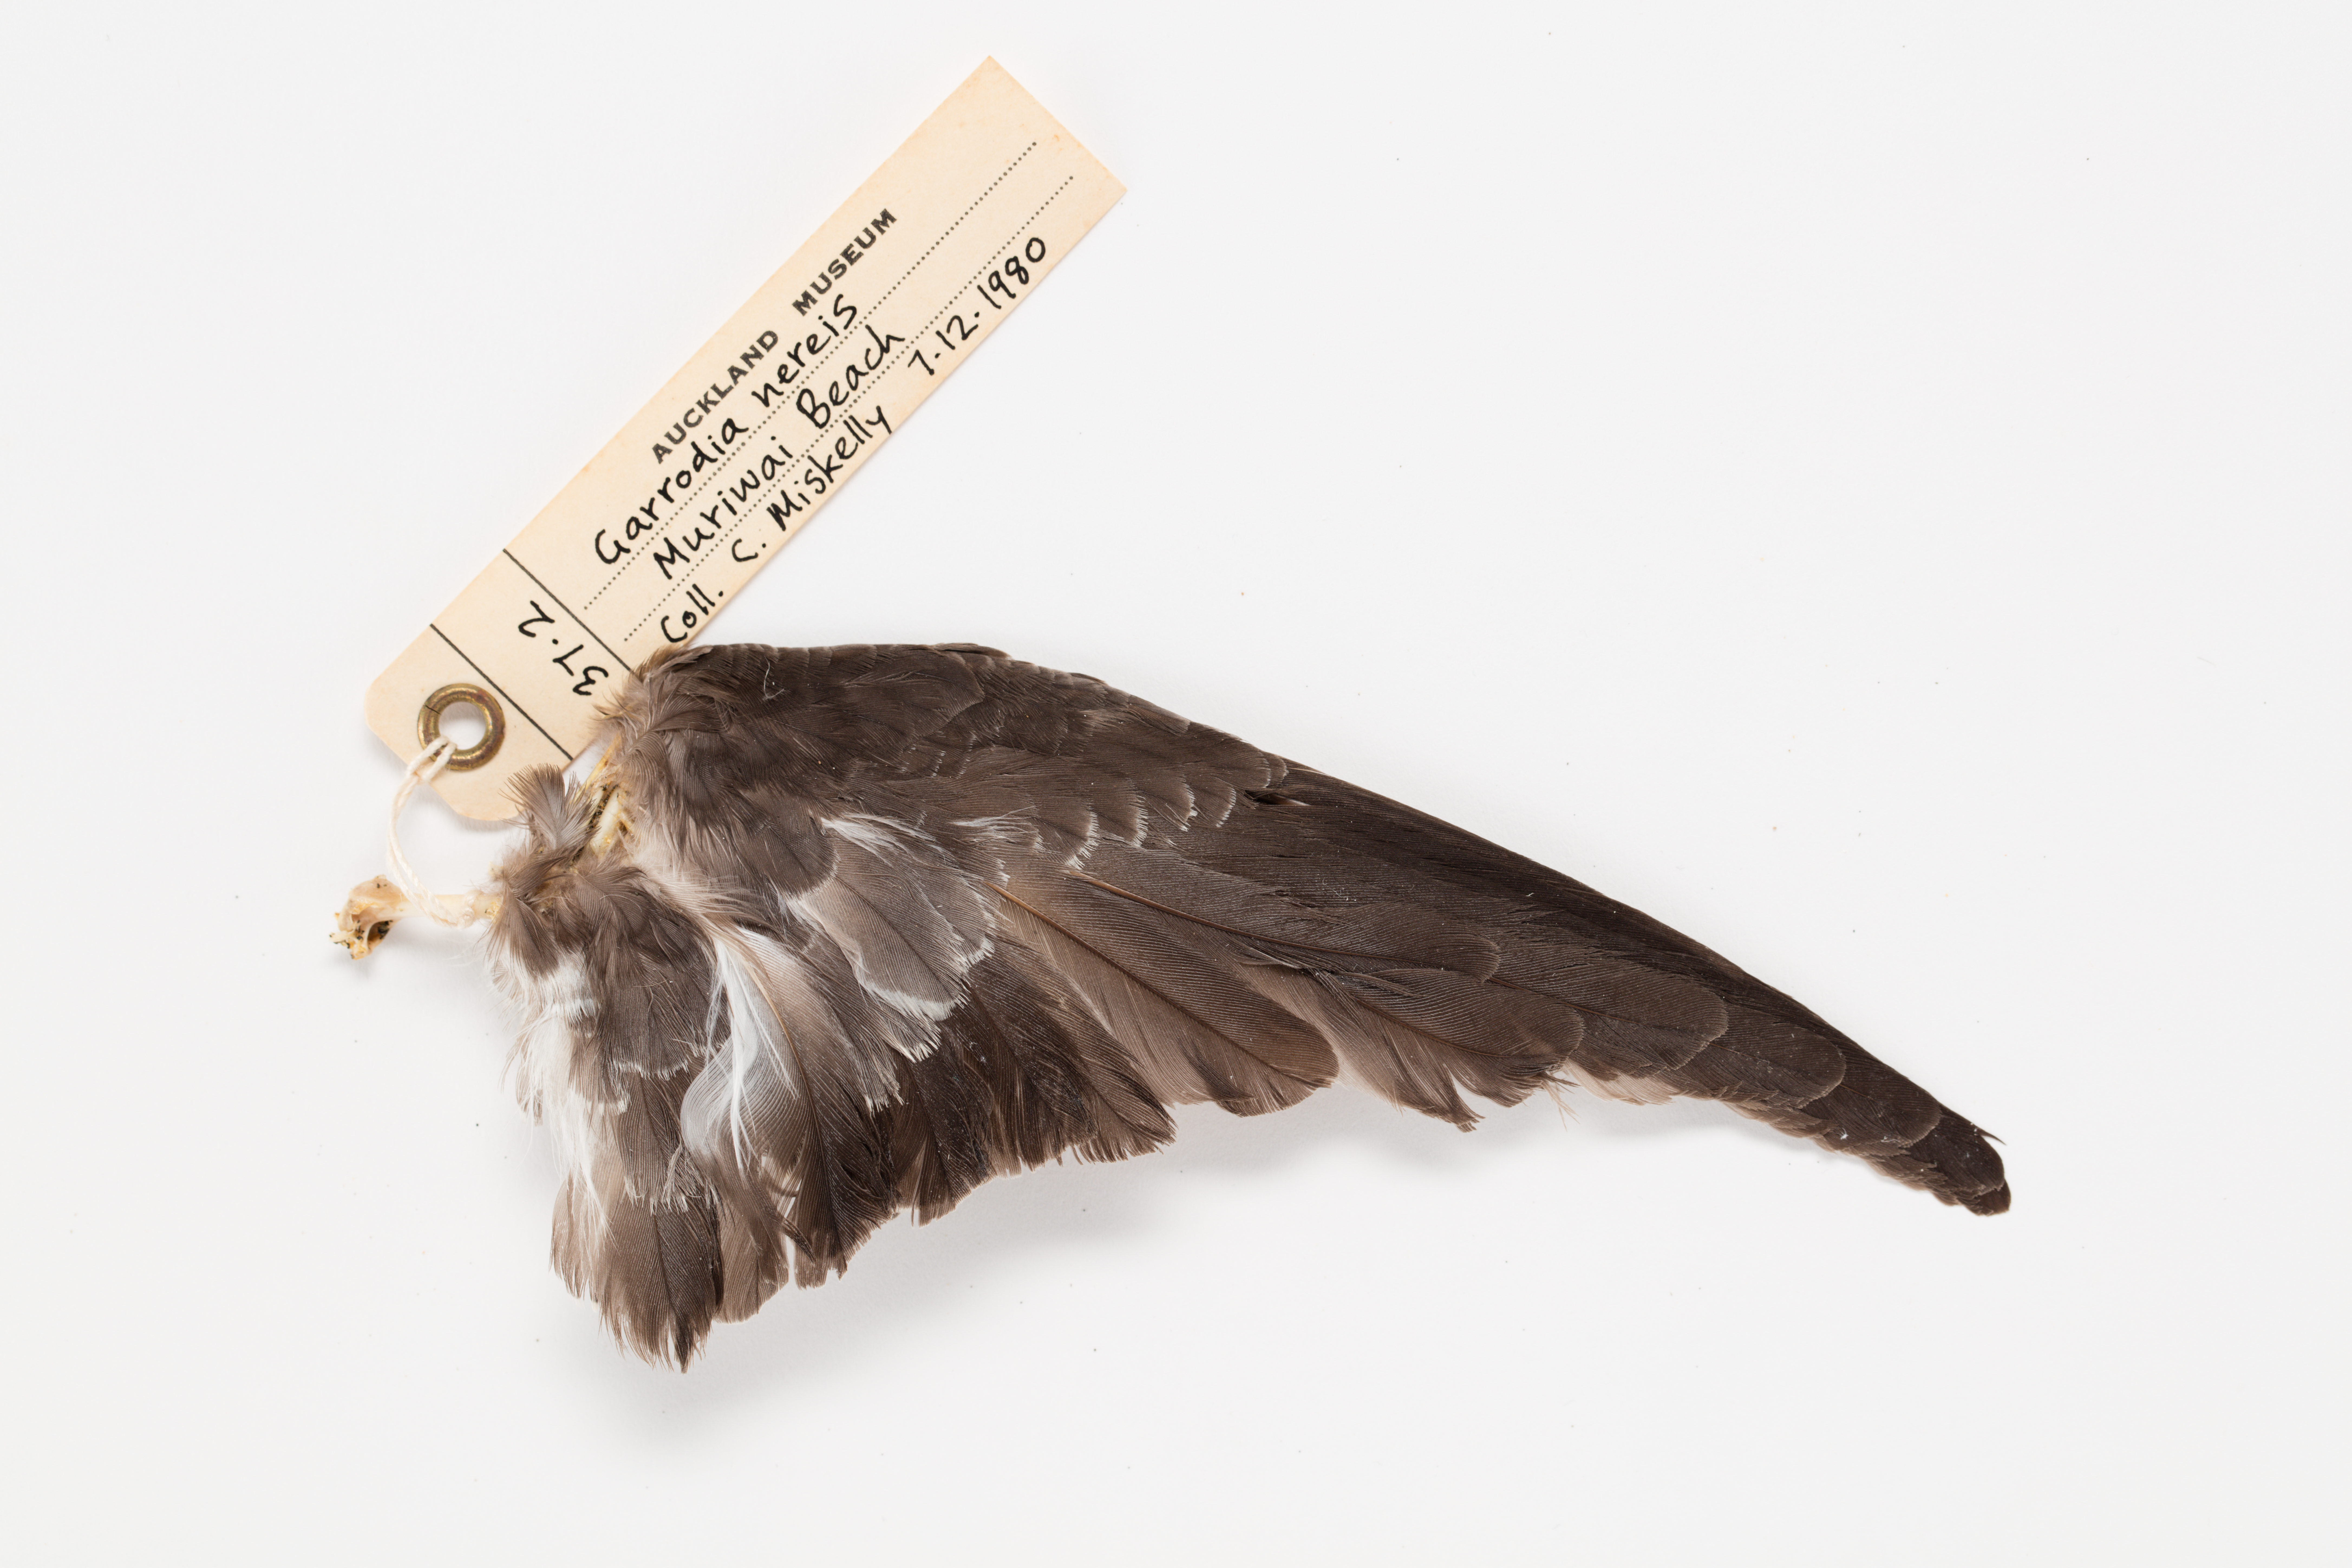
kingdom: Animalia
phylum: Chordata
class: Aves
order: Procellariiformes
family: Hydrobatidae
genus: Garrodia
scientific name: Garrodia nereis
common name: Grey-backed storm petrel
